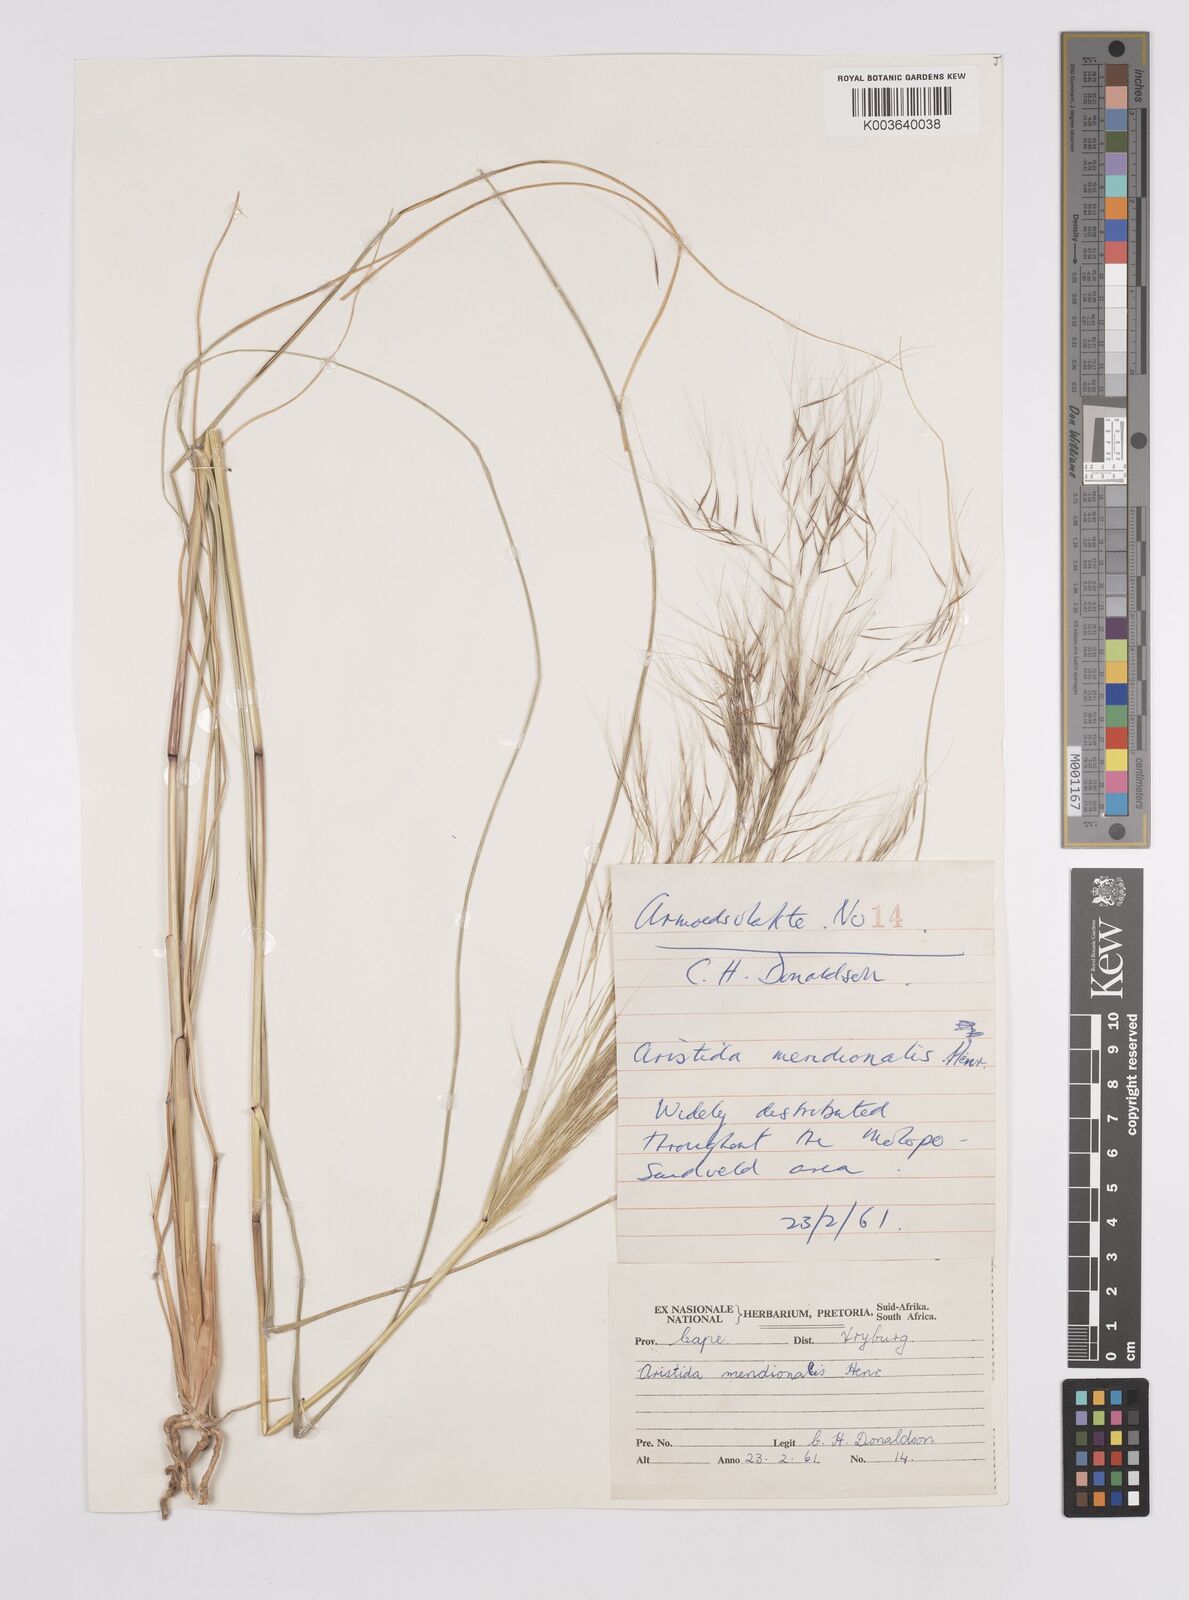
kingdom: Plantae
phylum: Tracheophyta
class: Liliopsida
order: Poales
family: Poaceae
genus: Aristida
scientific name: Aristida meridionalis
